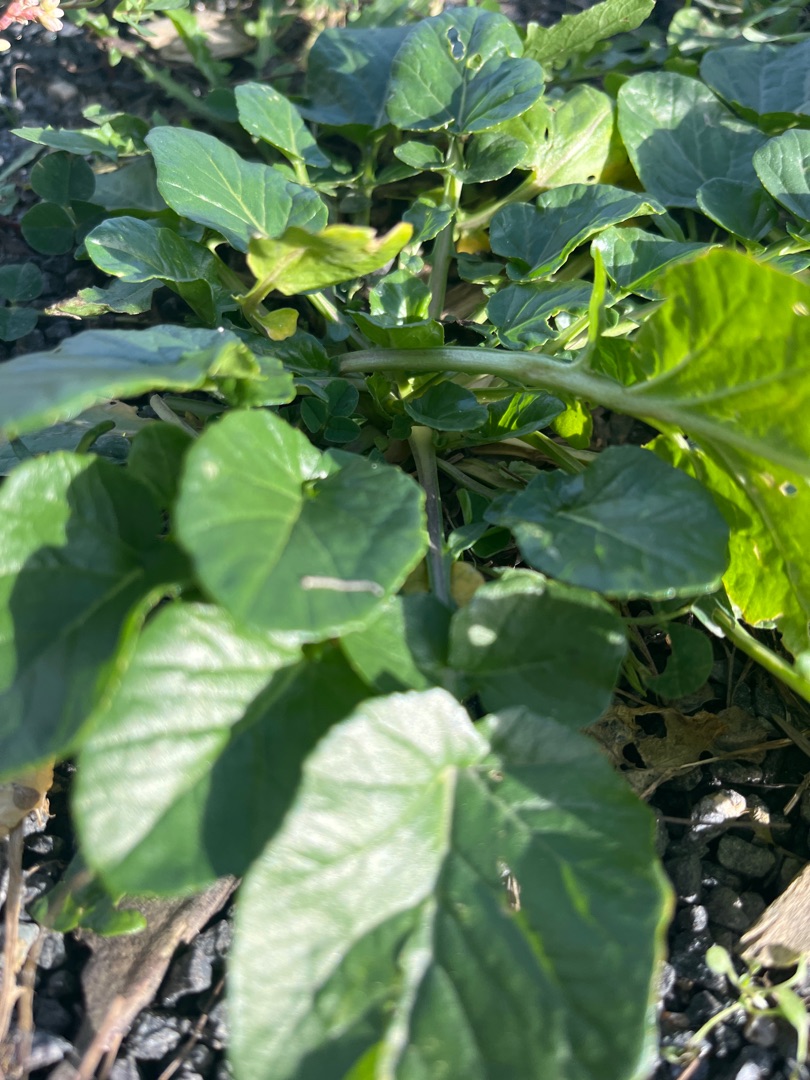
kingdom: Plantae
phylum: Tracheophyta
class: Magnoliopsida
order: Brassicales
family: Brassicaceae
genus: Barbarea
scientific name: Barbarea vulgaris
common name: Almindelig vinterkarse
